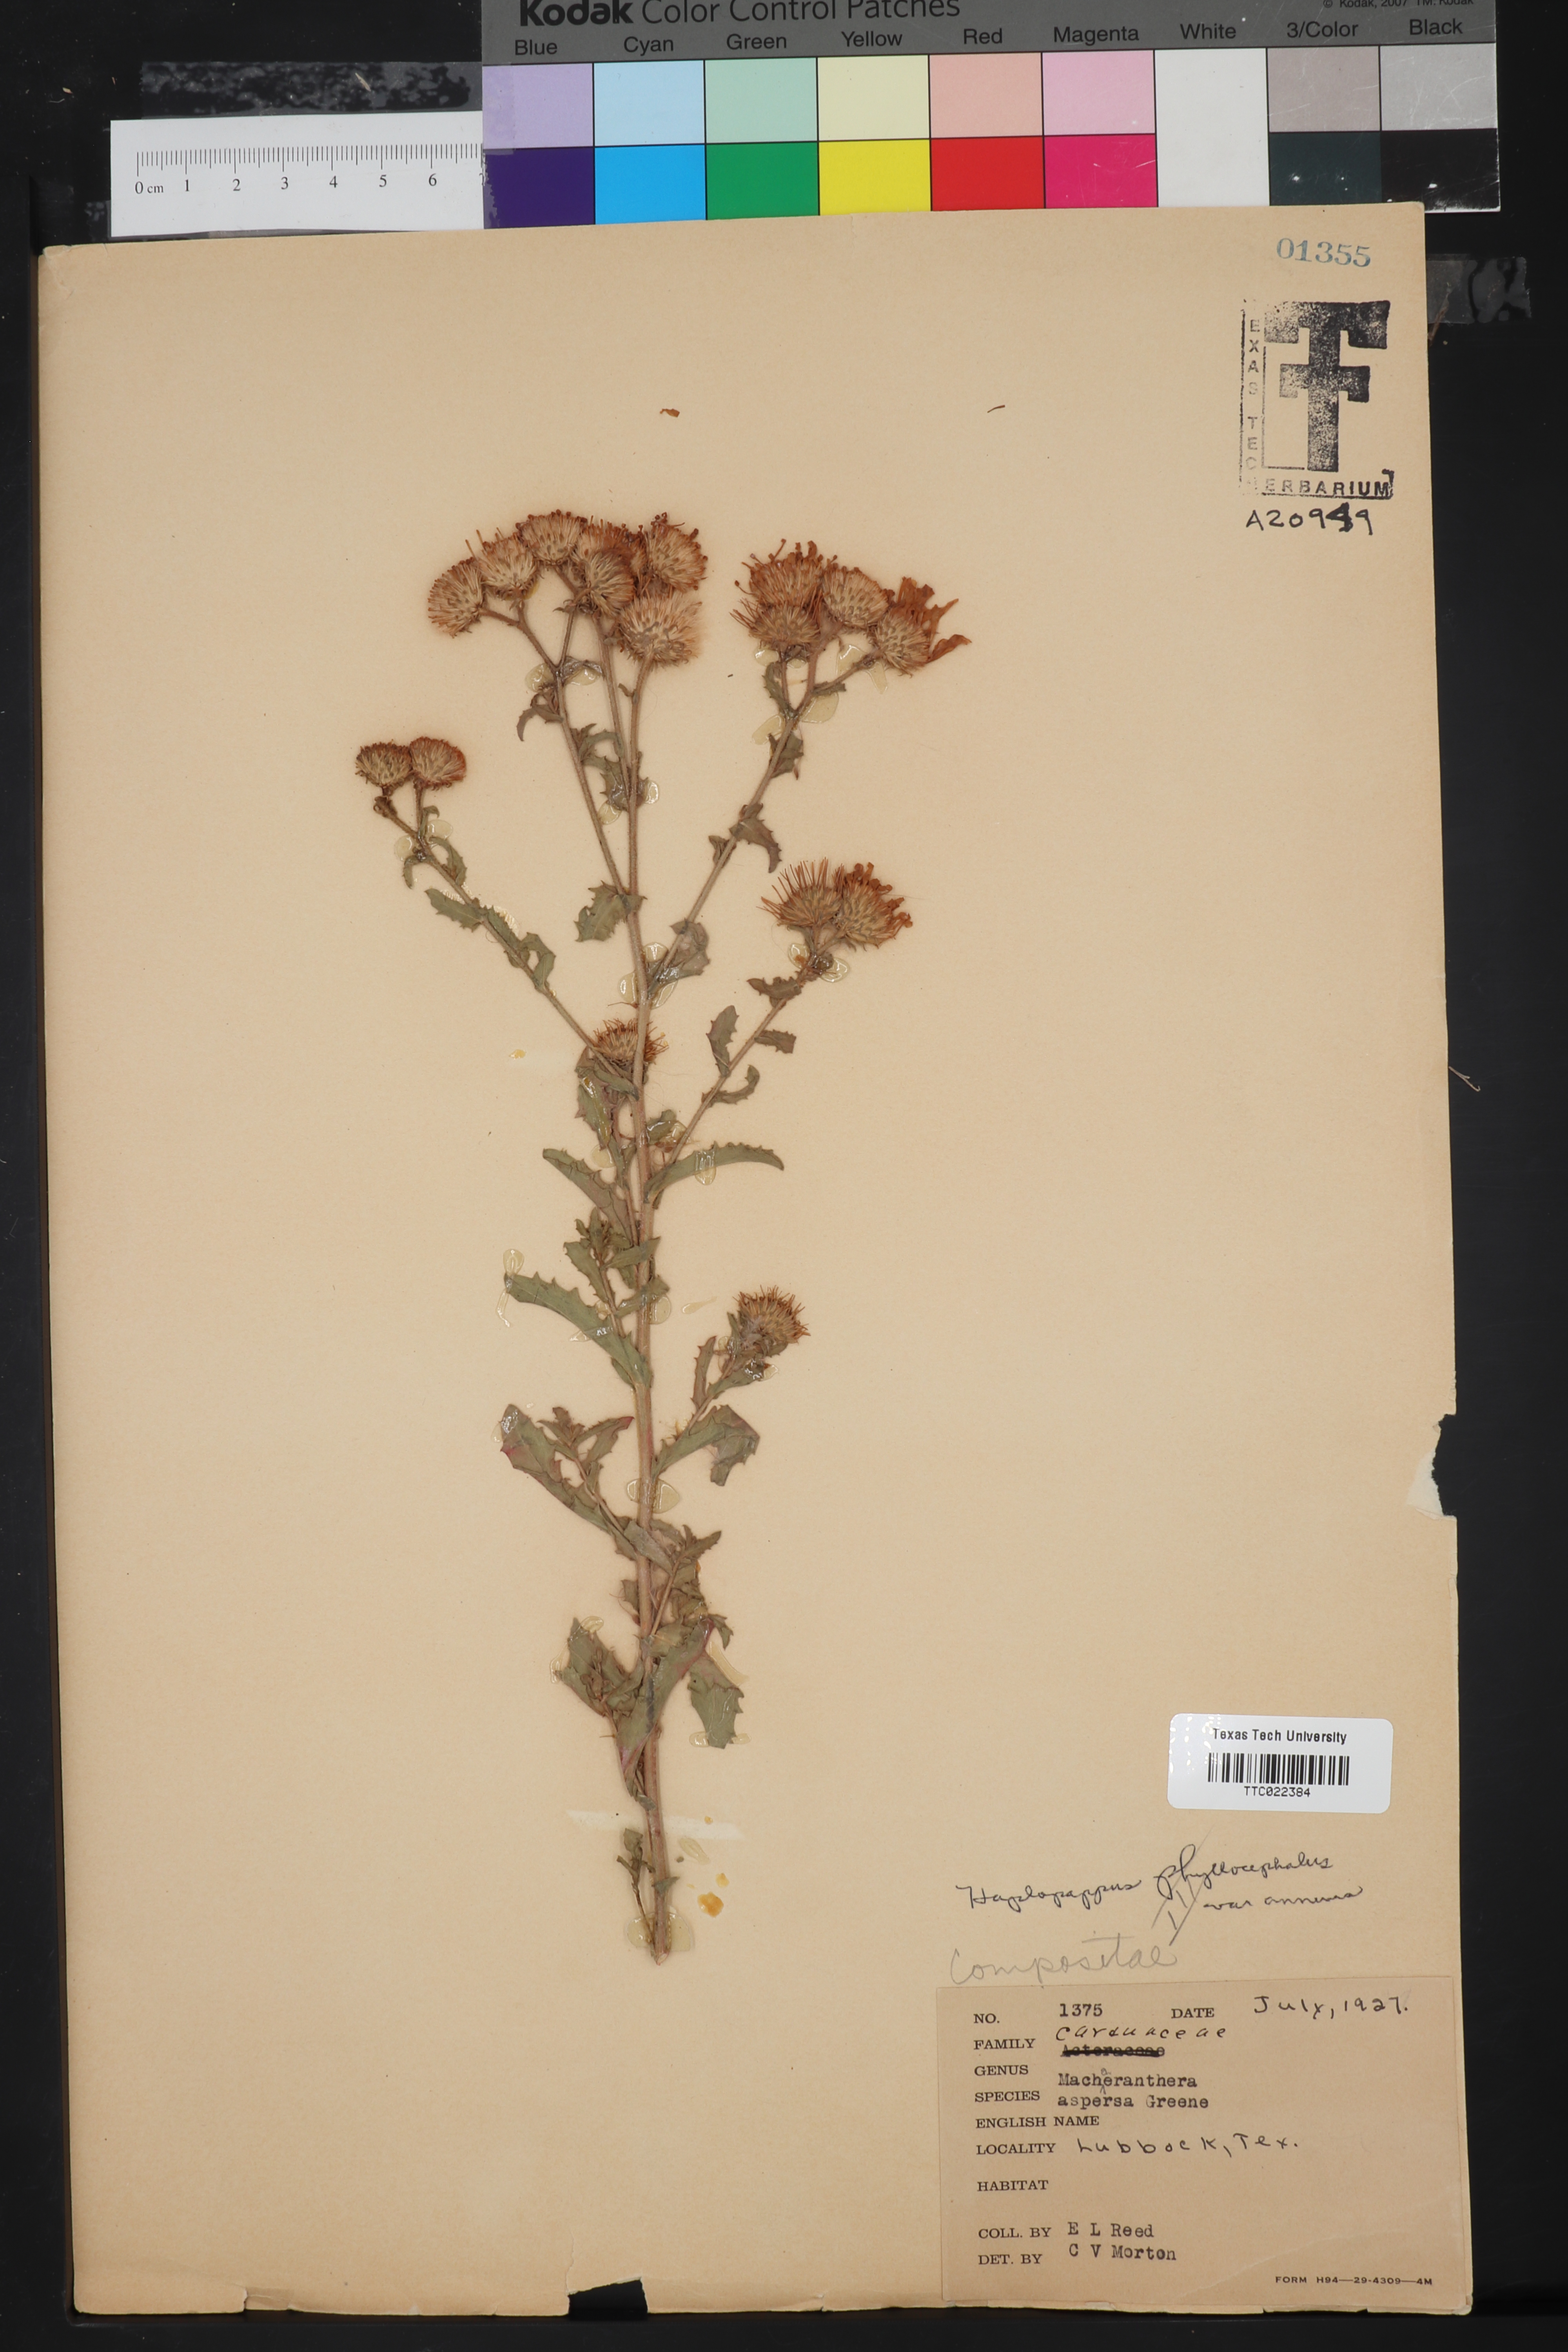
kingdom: Plantae
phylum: Tracheophyta
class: Magnoliopsida
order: Asterales
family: Asteraceae
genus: Dieteria
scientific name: Dieteria bigelovii
